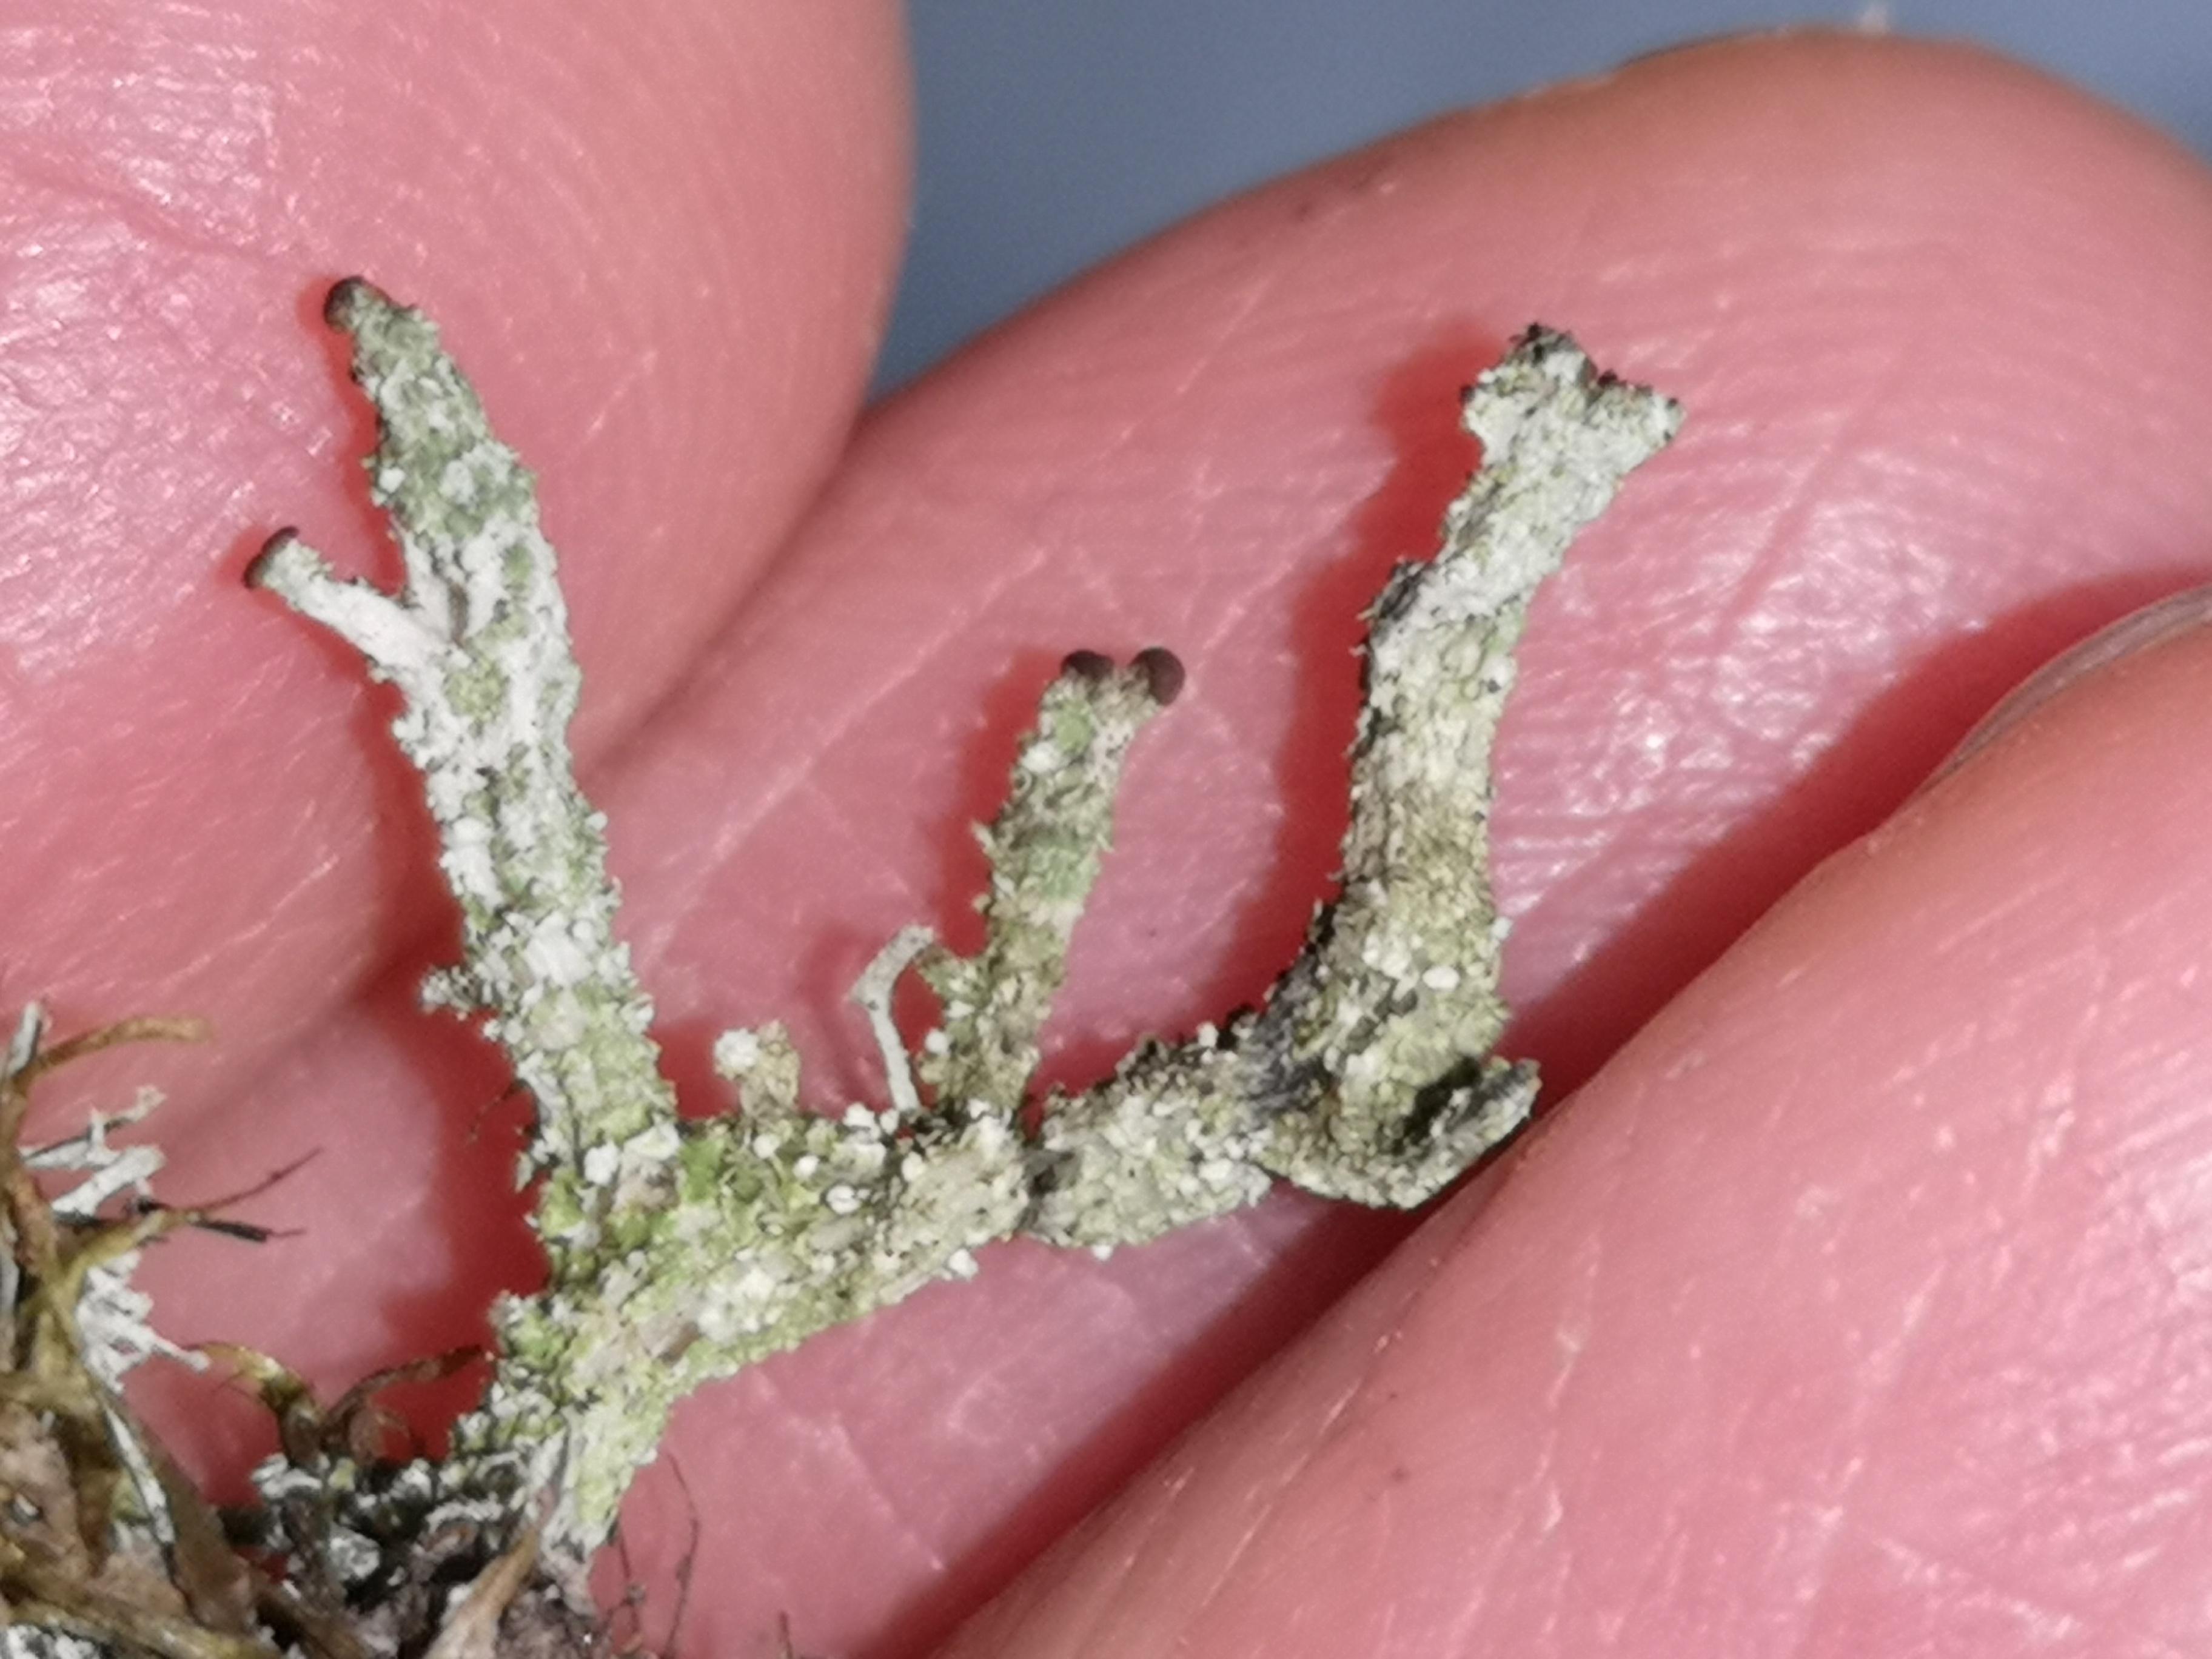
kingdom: Fungi
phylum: Ascomycota
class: Lecanoromycetes
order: Lecanorales
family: Cladoniaceae
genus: Cladonia
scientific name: Cladonia ramulosa
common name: kliddet bægerlav
